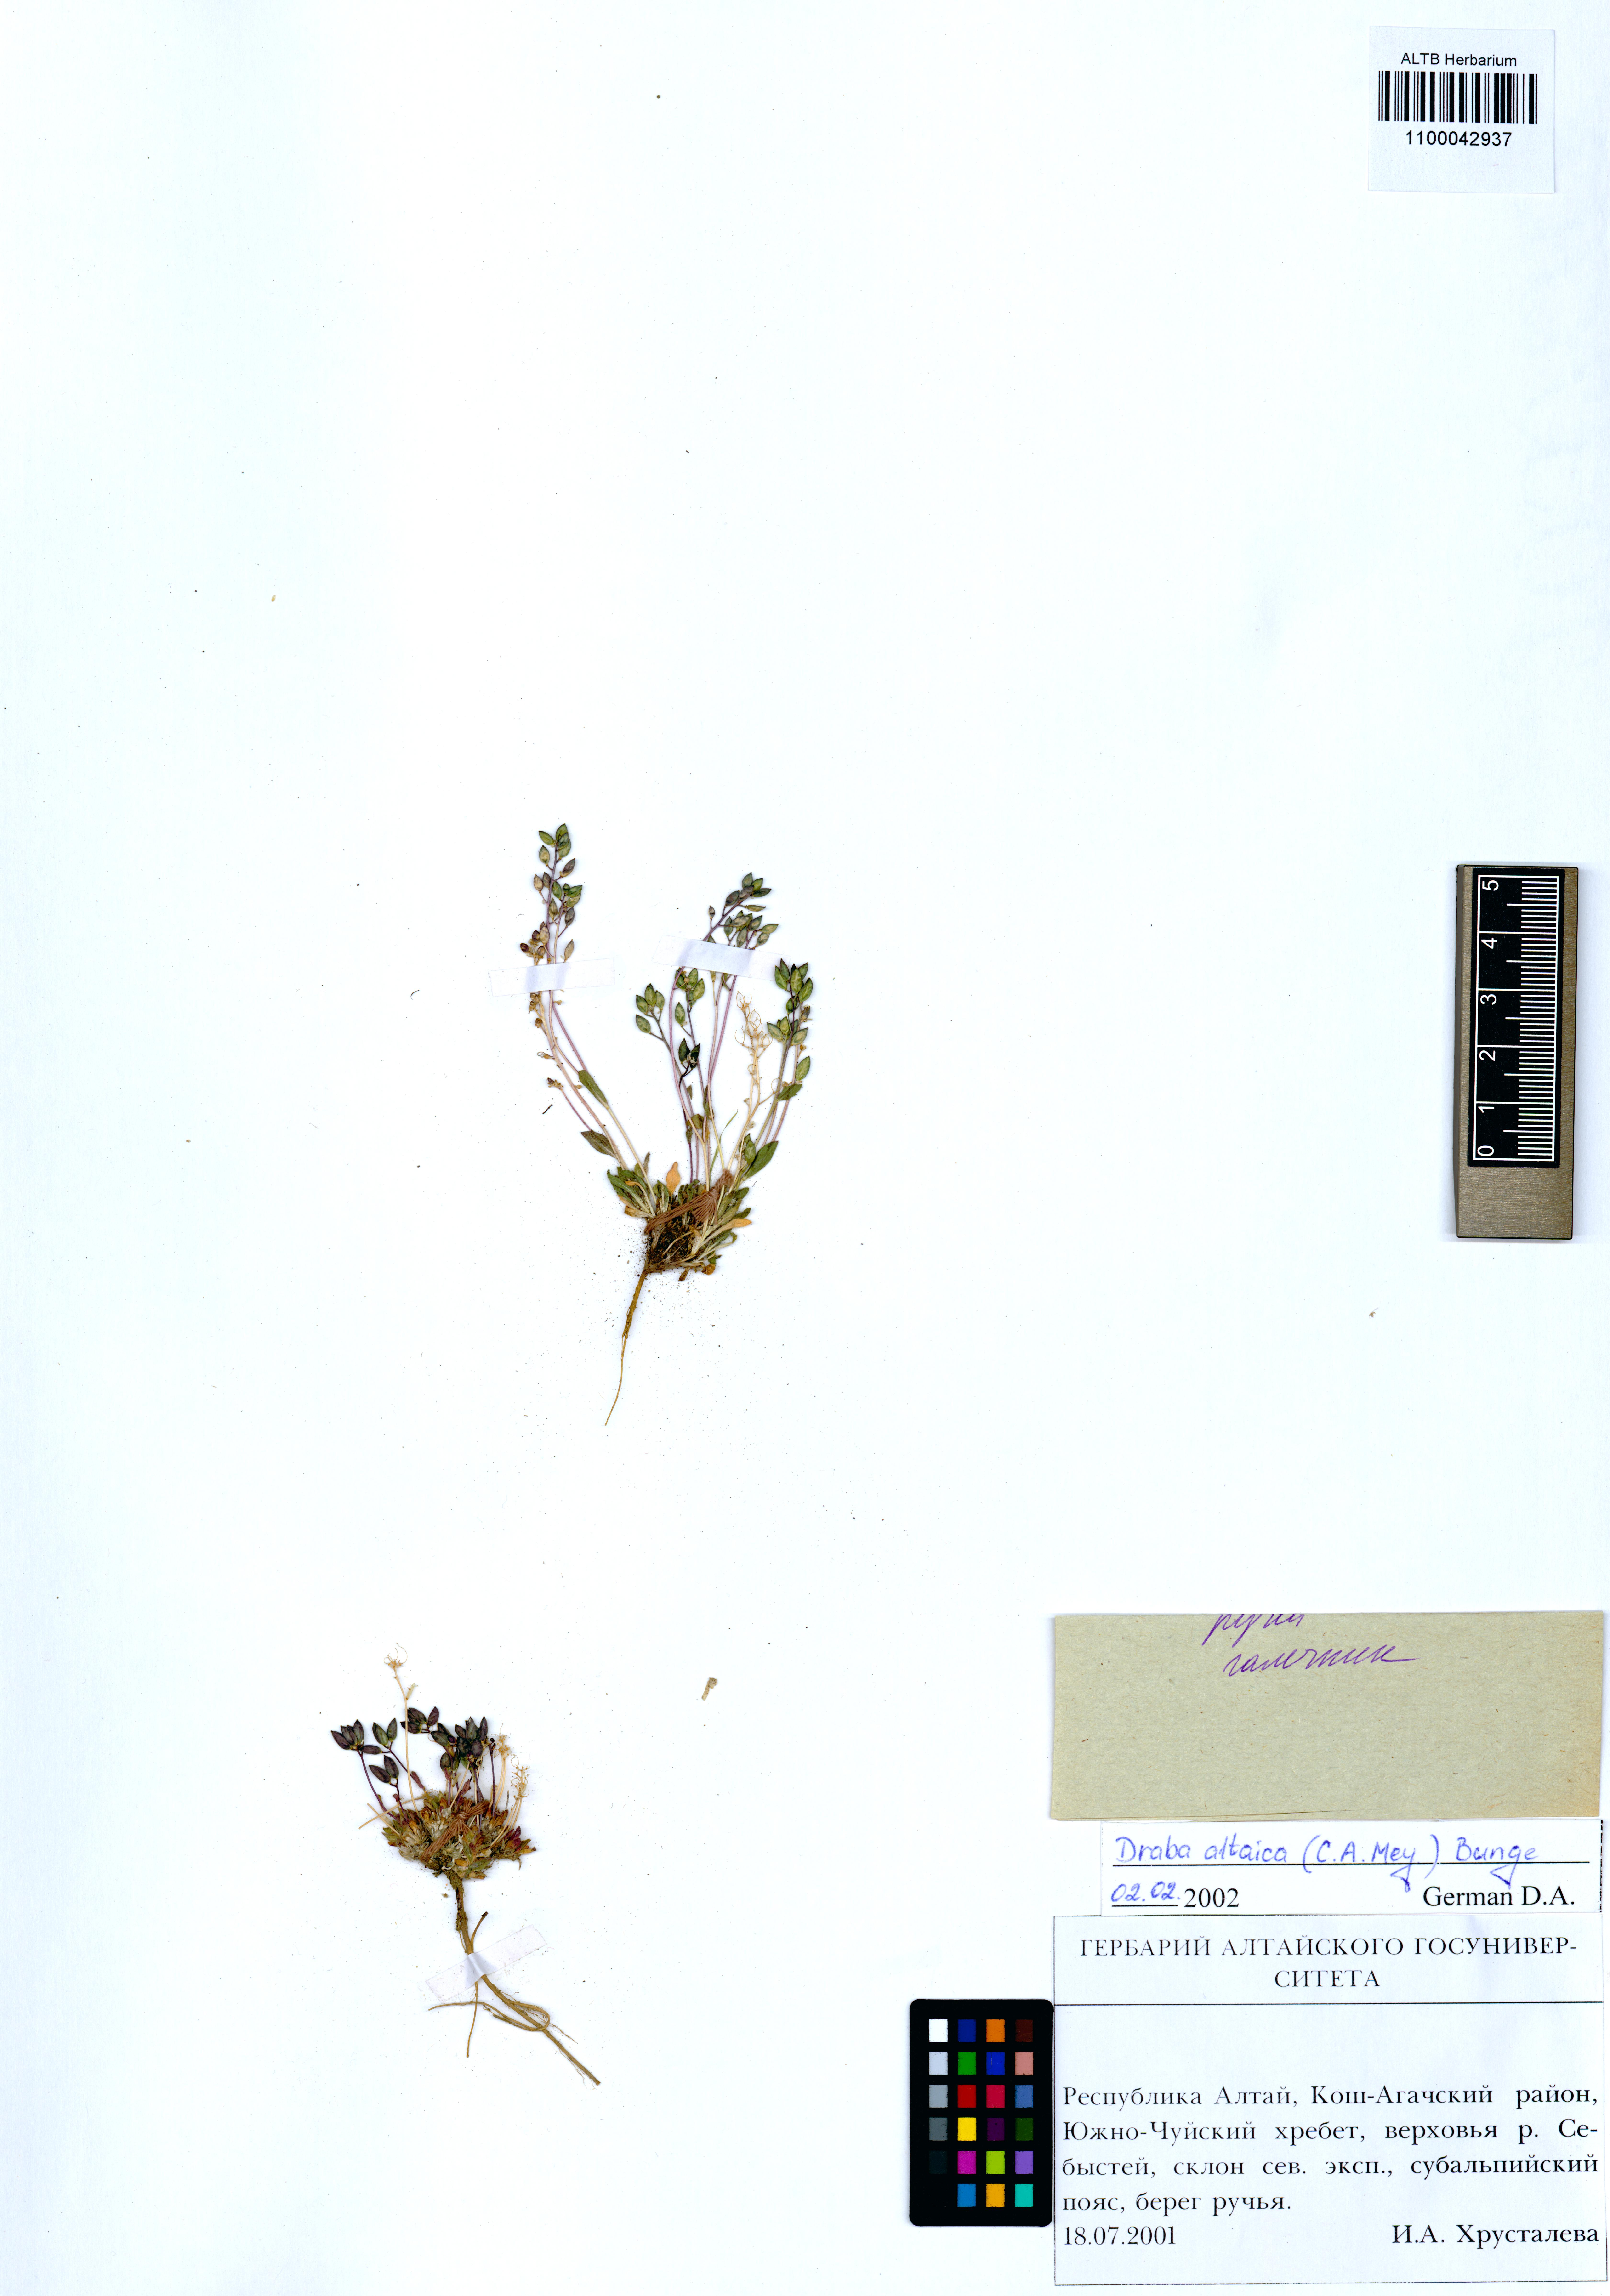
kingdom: Plantae
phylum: Tracheophyta
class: Magnoliopsida
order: Brassicales
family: Brassicaceae
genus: Draba
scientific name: Draba altaica
